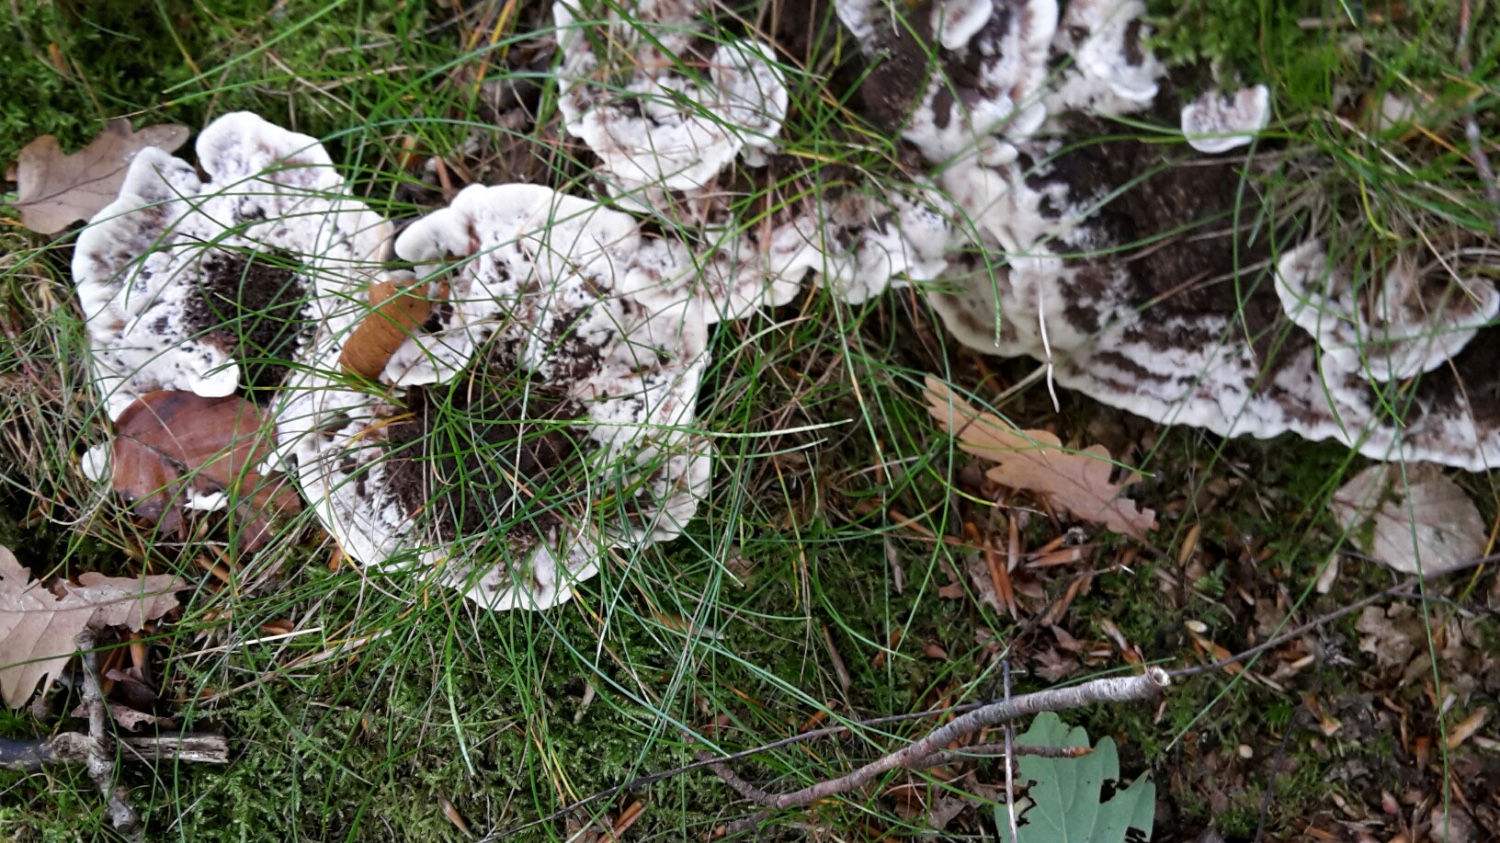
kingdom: Fungi
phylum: Basidiomycota
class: Agaricomycetes
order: Thelephorales
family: Thelephoraceae
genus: Phellodon
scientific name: Phellodon confluens
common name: pjaltet duftpigsvamp
